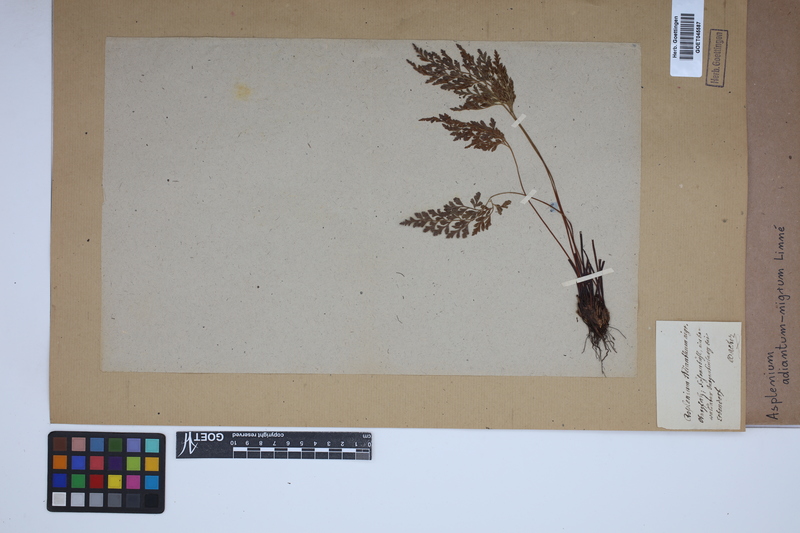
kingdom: Plantae
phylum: Tracheophyta
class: Polypodiopsida
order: Polypodiales
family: Aspleniaceae
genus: Asplenium
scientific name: Asplenium adiantum-nigrum
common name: Black spleenwort
